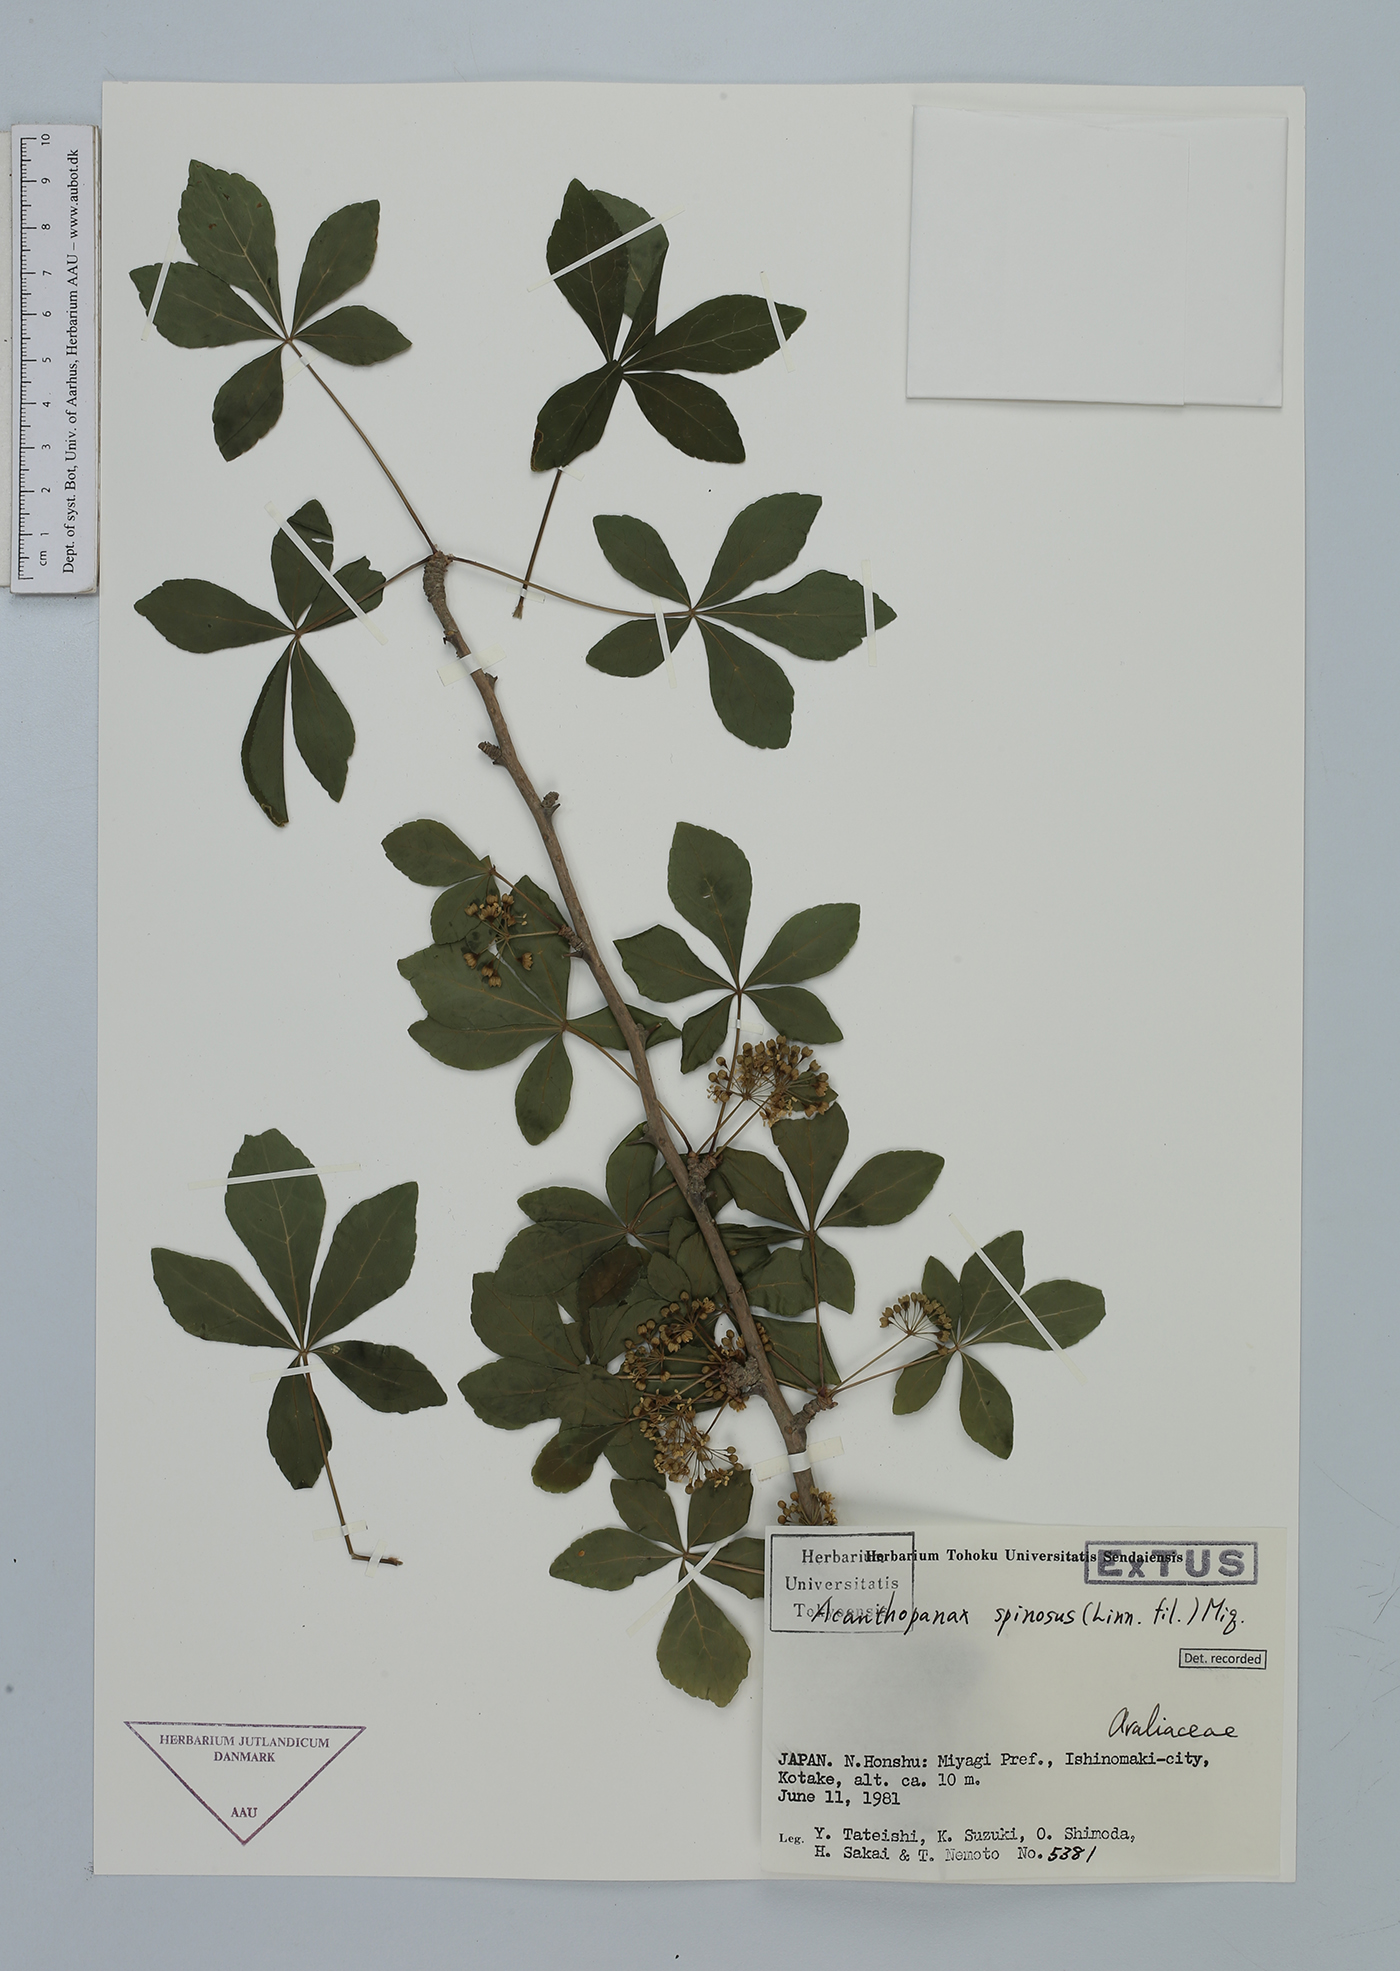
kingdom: Plantae
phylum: Tracheophyta
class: Magnoliopsida
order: Apiales
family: Araliaceae
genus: Eleutherococcus
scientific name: Eleutherococcus spinosus
